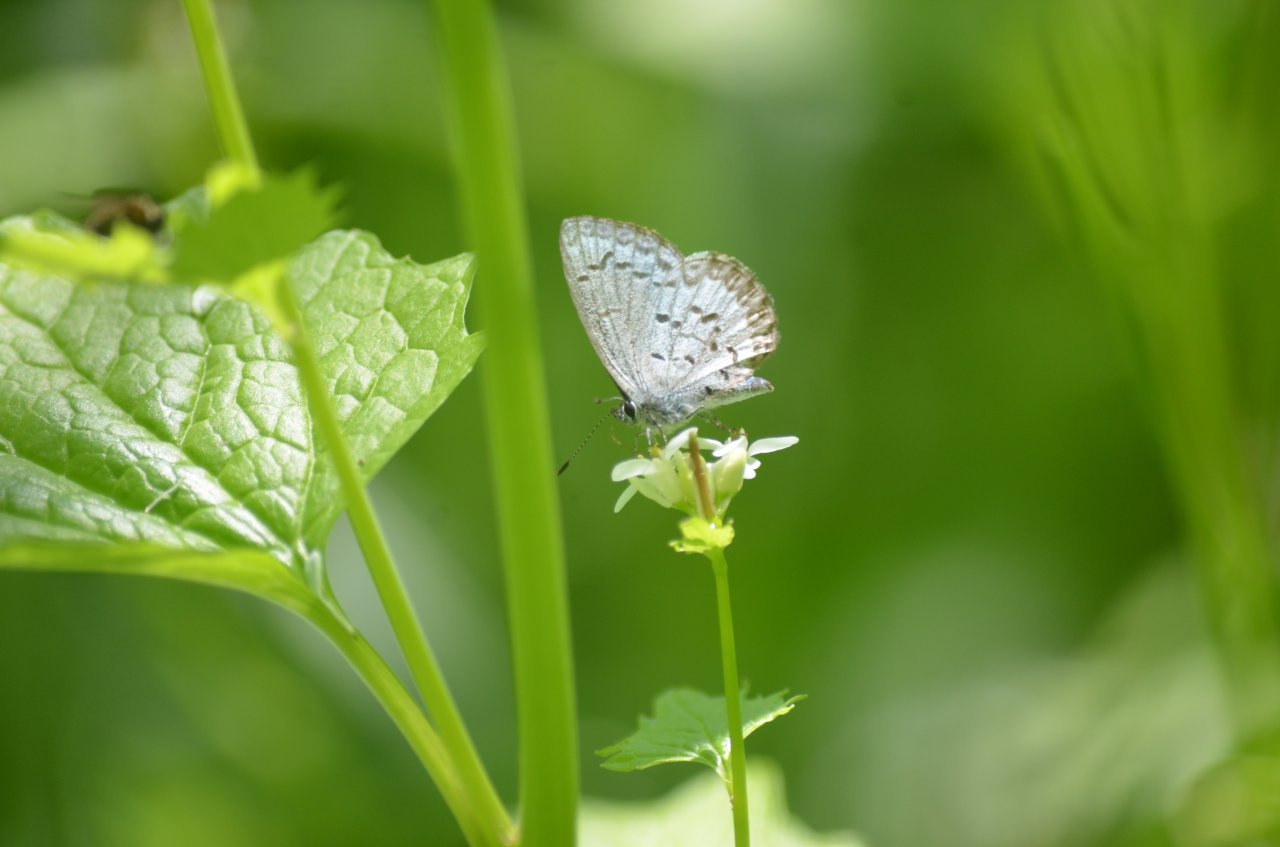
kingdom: Animalia
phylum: Arthropoda
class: Insecta
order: Lepidoptera
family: Lycaenidae
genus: Celastrina
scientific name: Celastrina
